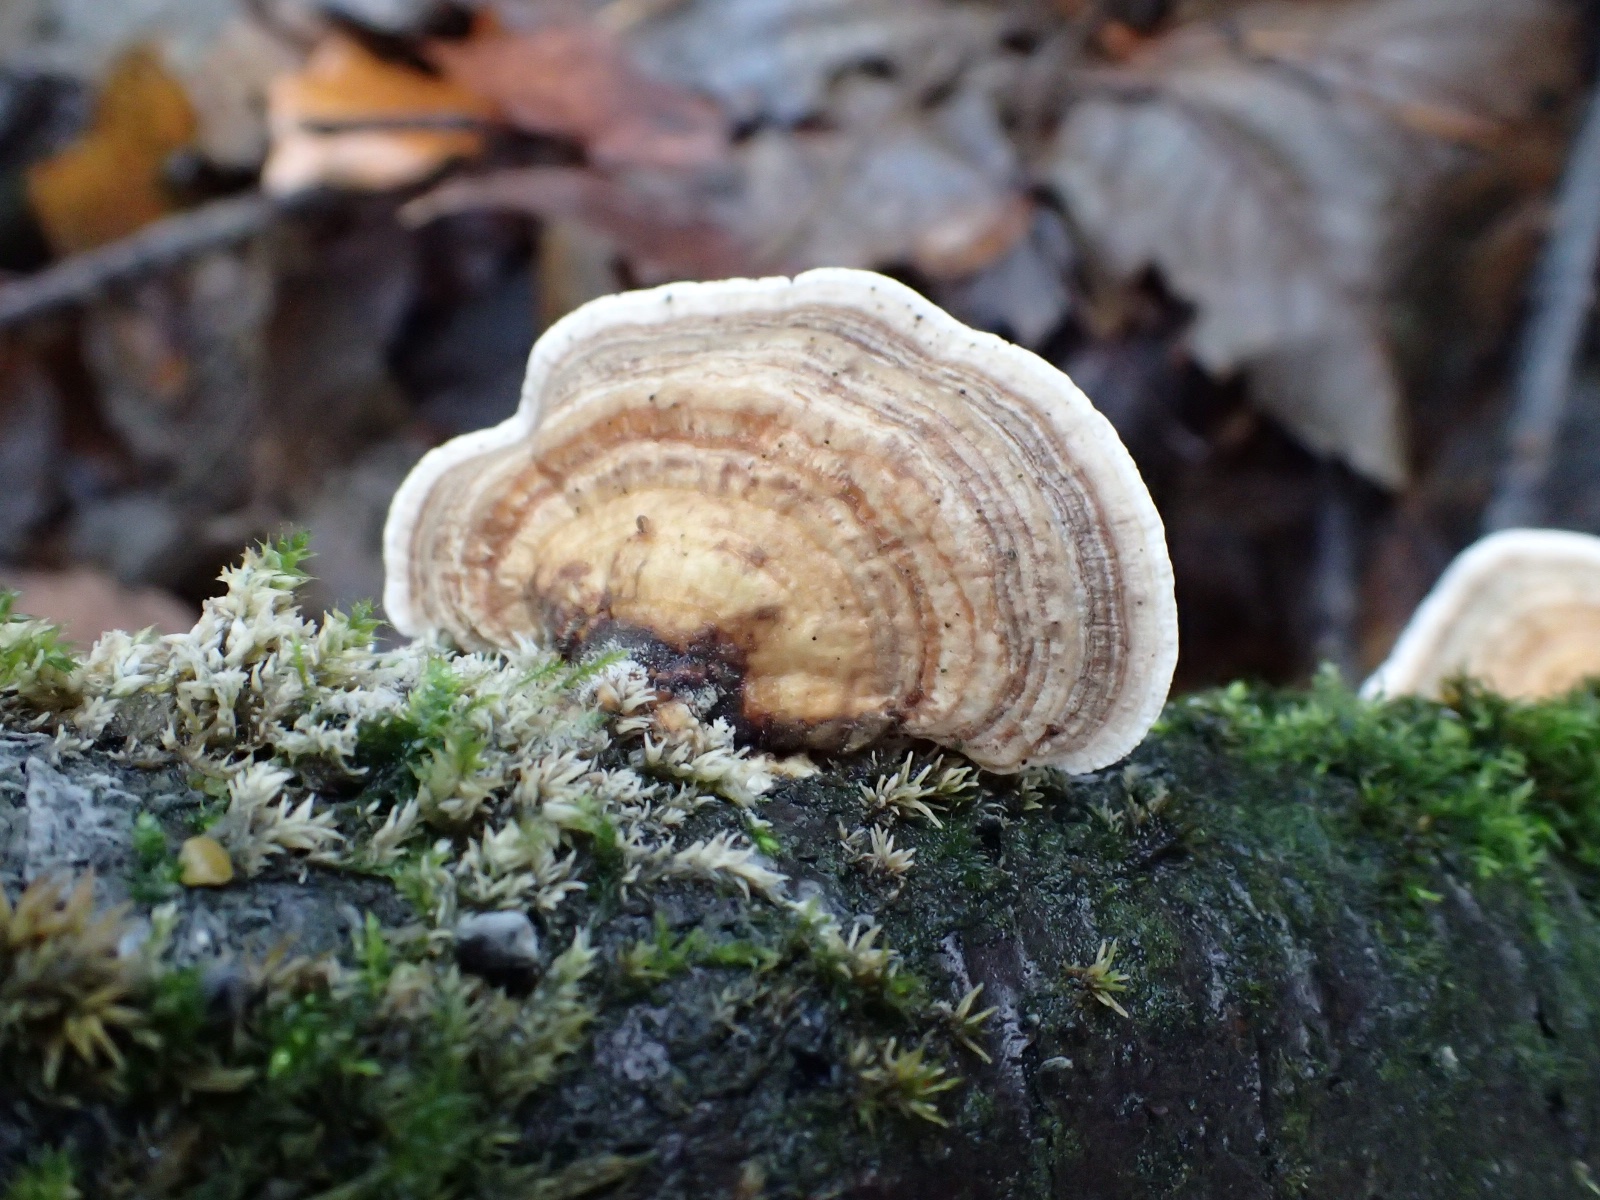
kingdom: Fungi
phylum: Basidiomycota
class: Agaricomycetes
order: Polyporales
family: Polyporaceae
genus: Trametes
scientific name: Trametes versicolor
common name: broget læderporesvamp
